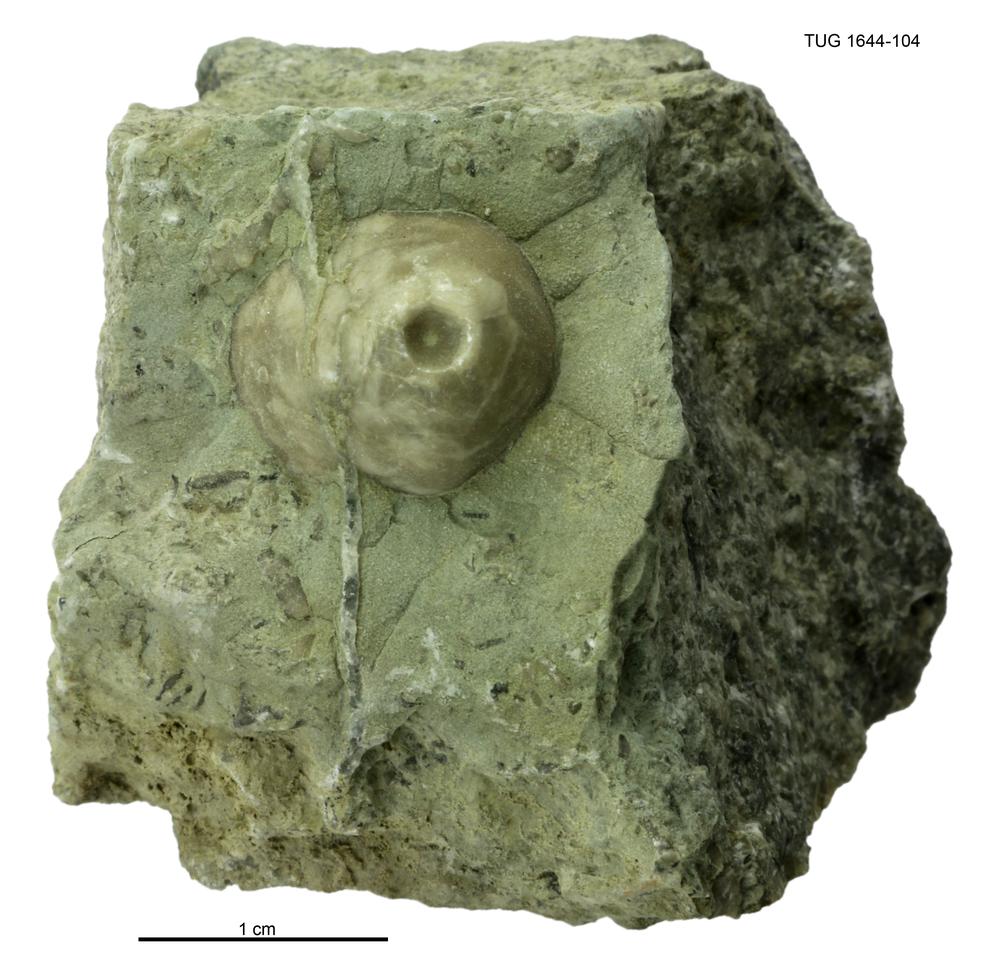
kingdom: Animalia
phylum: Echinodermata
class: Crinoidea
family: Eucalyptocrinitidae
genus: Eucalyptocrinites
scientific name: Eucalyptocrinites
